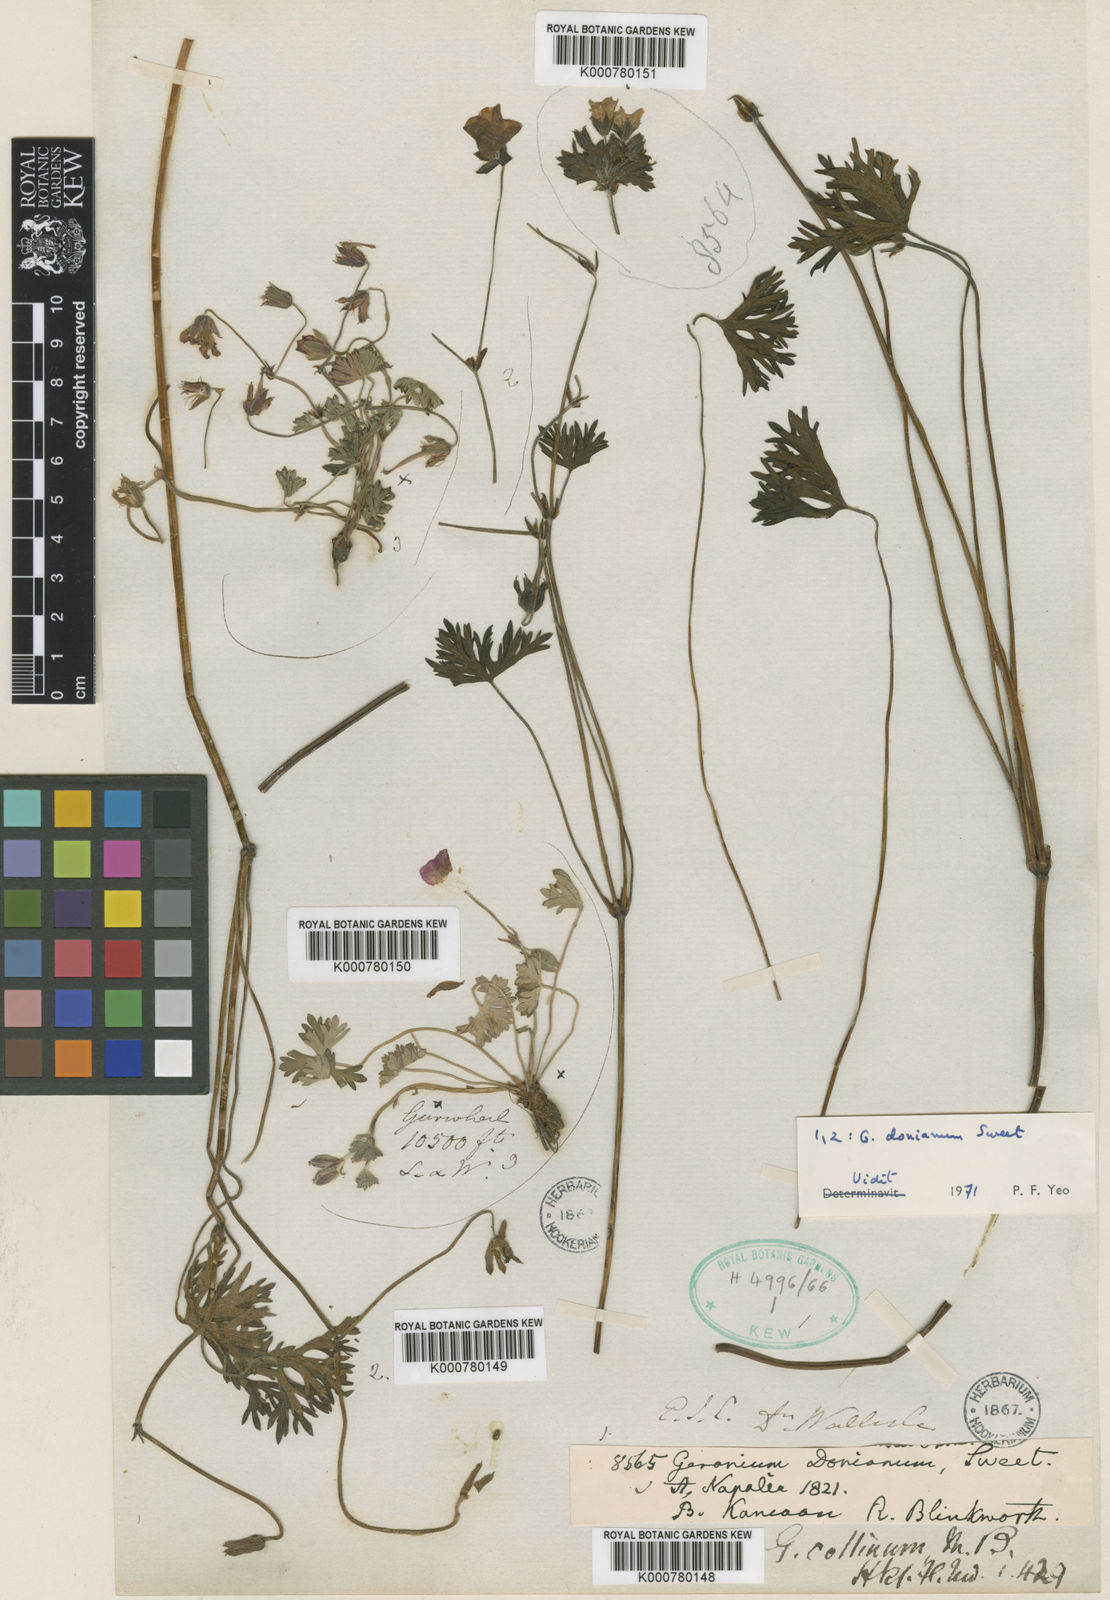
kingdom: Plantae
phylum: Tracheophyta
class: Magnoliopsida
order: Geraniales
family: Geraniaceae
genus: Geranium
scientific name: Geranium donianum
